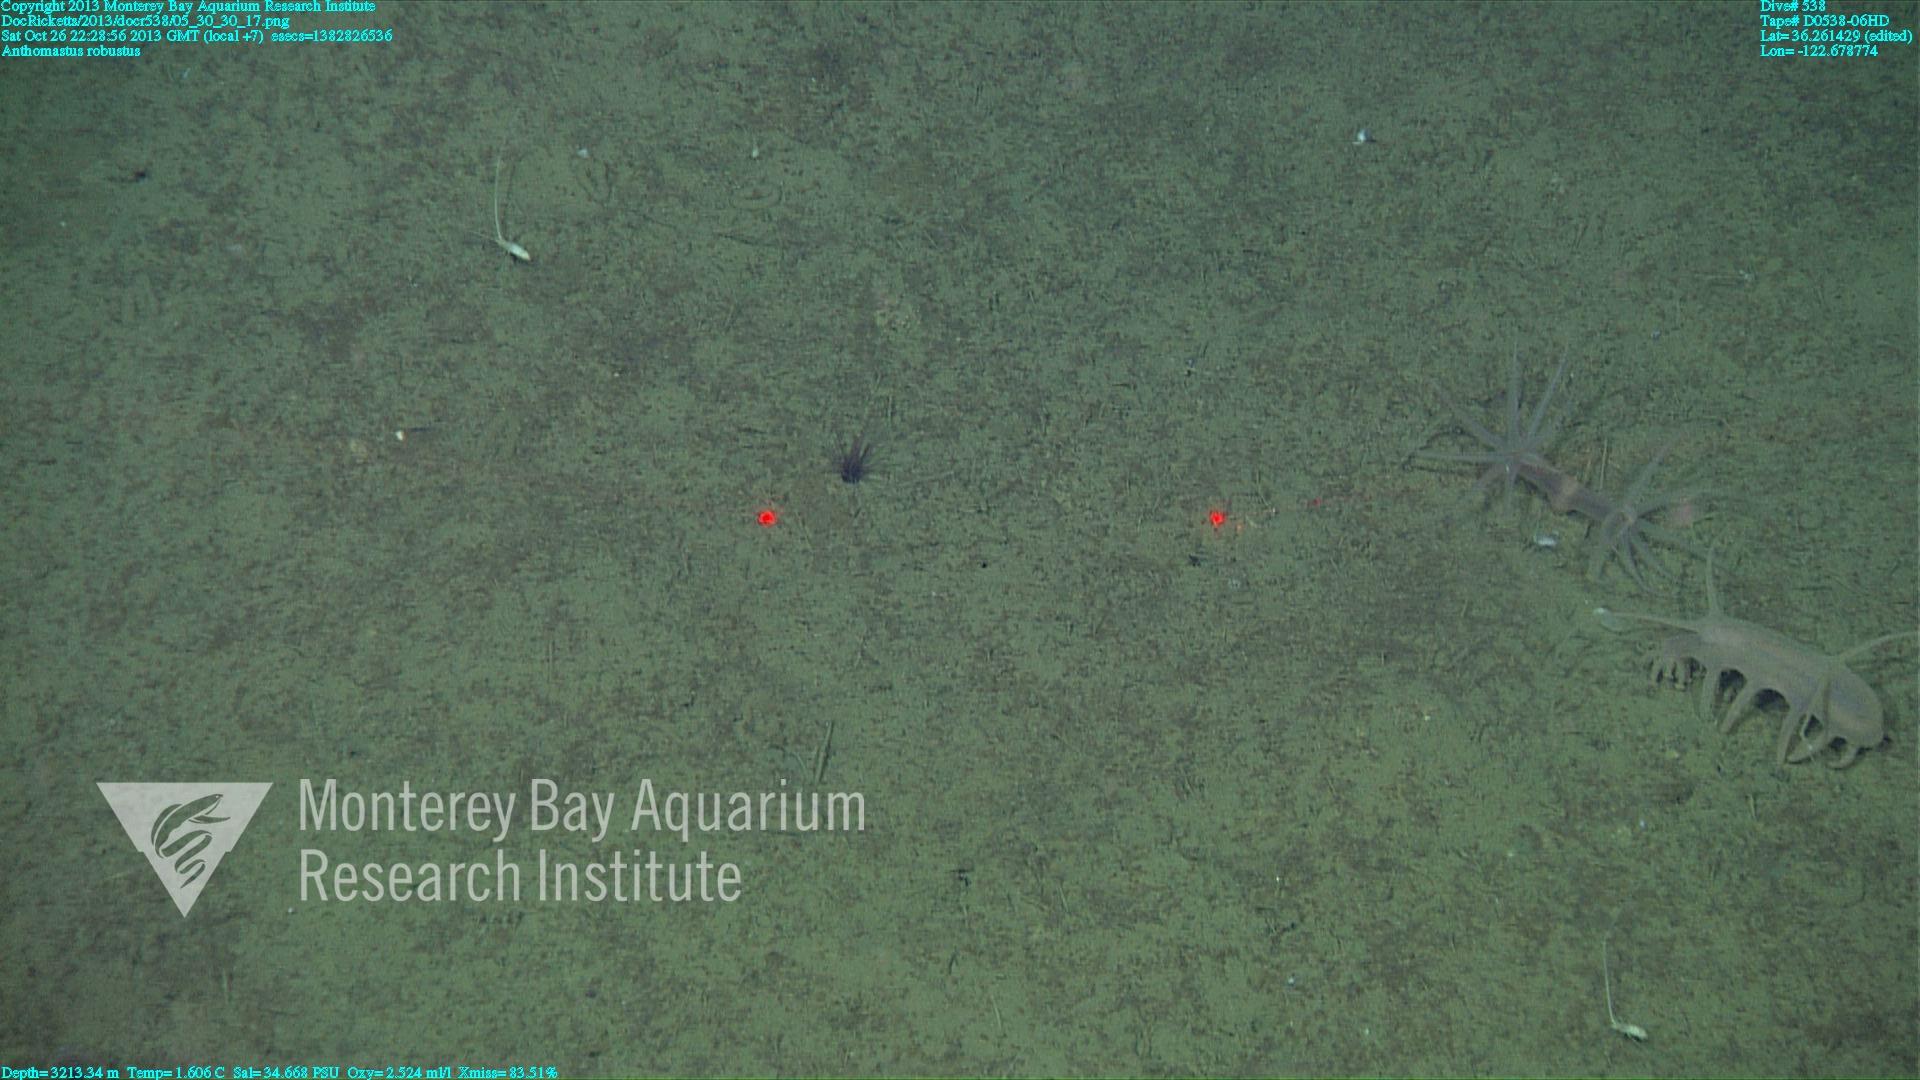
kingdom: Animalia
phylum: Cnidaria
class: Anthozoa
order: Scleralcyonacea
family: Coralliidae
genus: Bathyalcyon
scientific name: Bathyalcyon robustum
